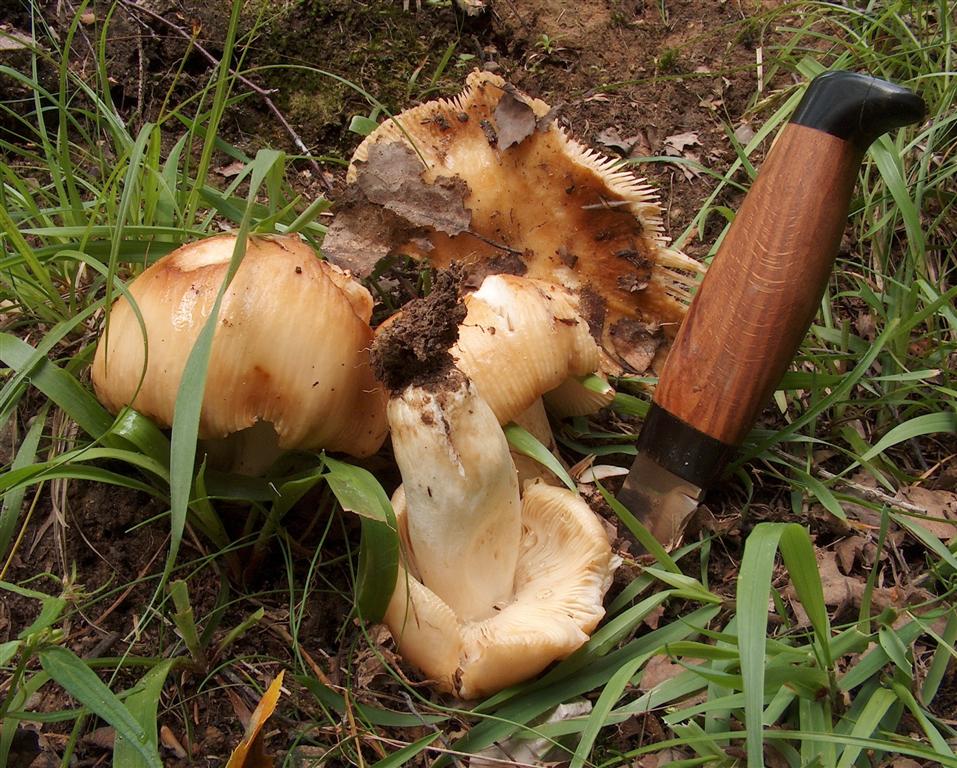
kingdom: Fungi
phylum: Basidiomycota
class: Agaricomycetes
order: Russulales
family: Russulaceae
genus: Russula
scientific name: Russula recondita
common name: mild kam-skørhat
